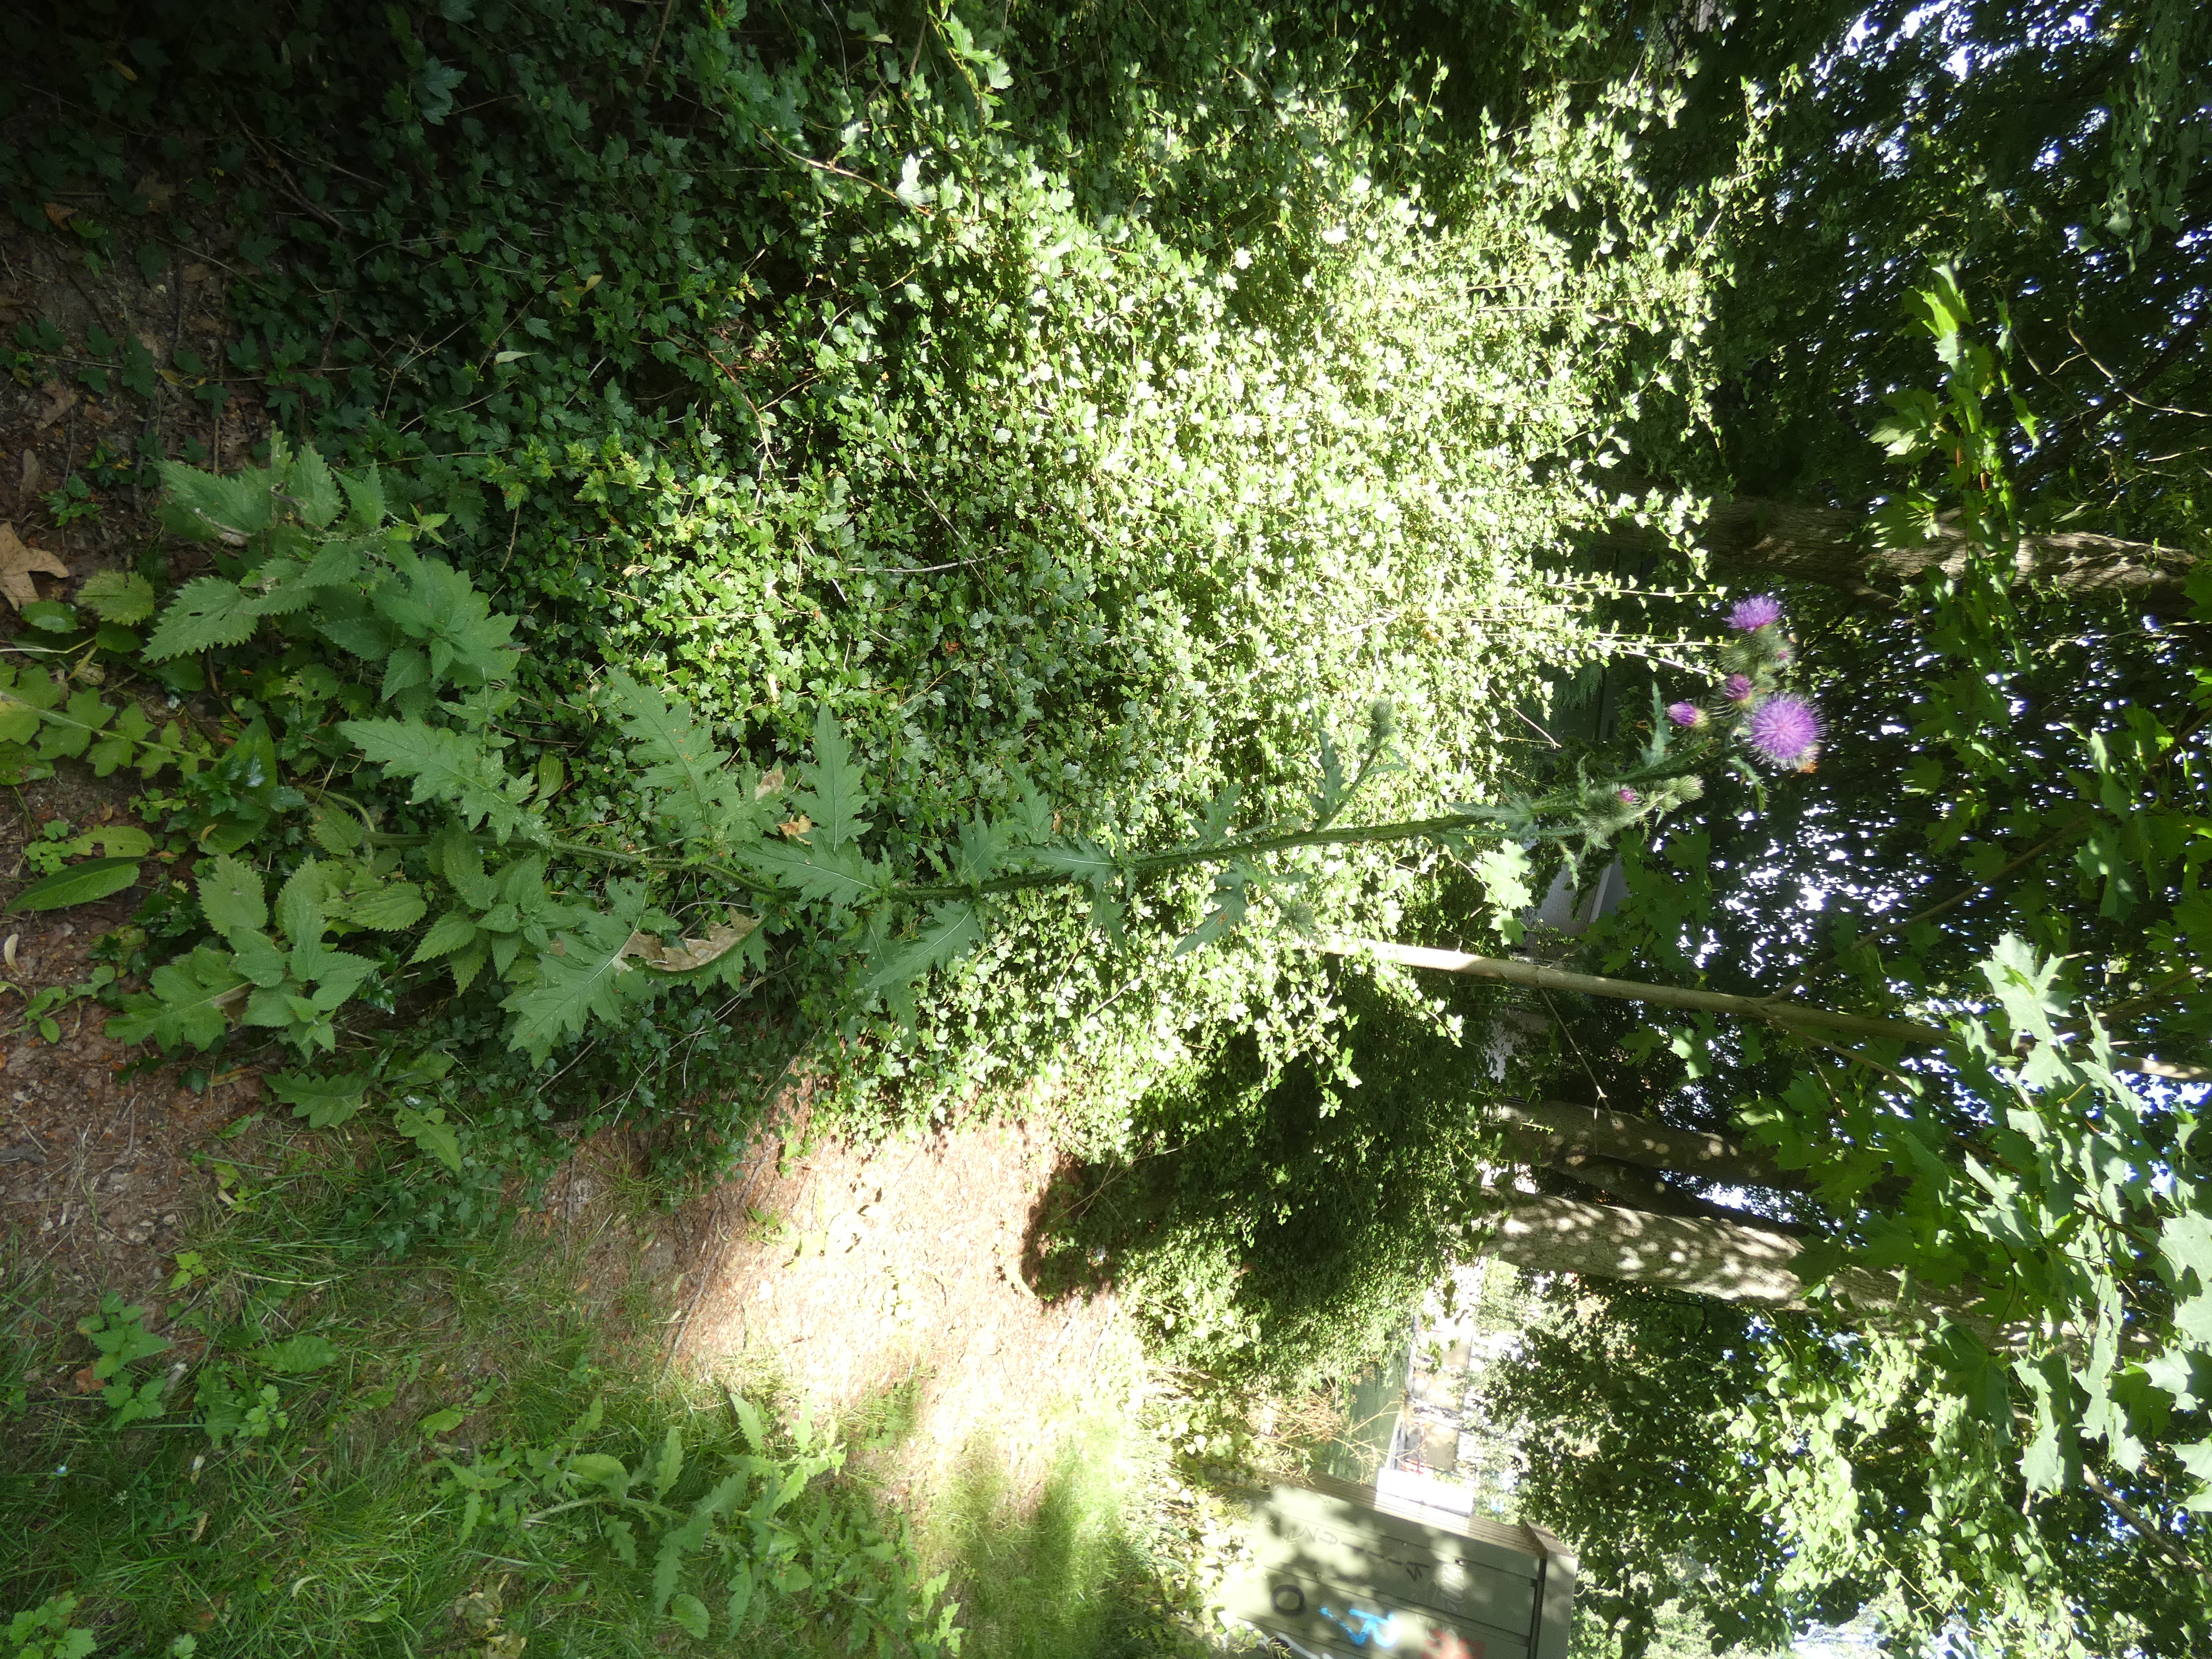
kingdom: Plantae
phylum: Tracheophyta
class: Magnoliopsida
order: Asterales
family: Asteraceae
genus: Carduus
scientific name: Carduus crispus
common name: Kruset tidsel
